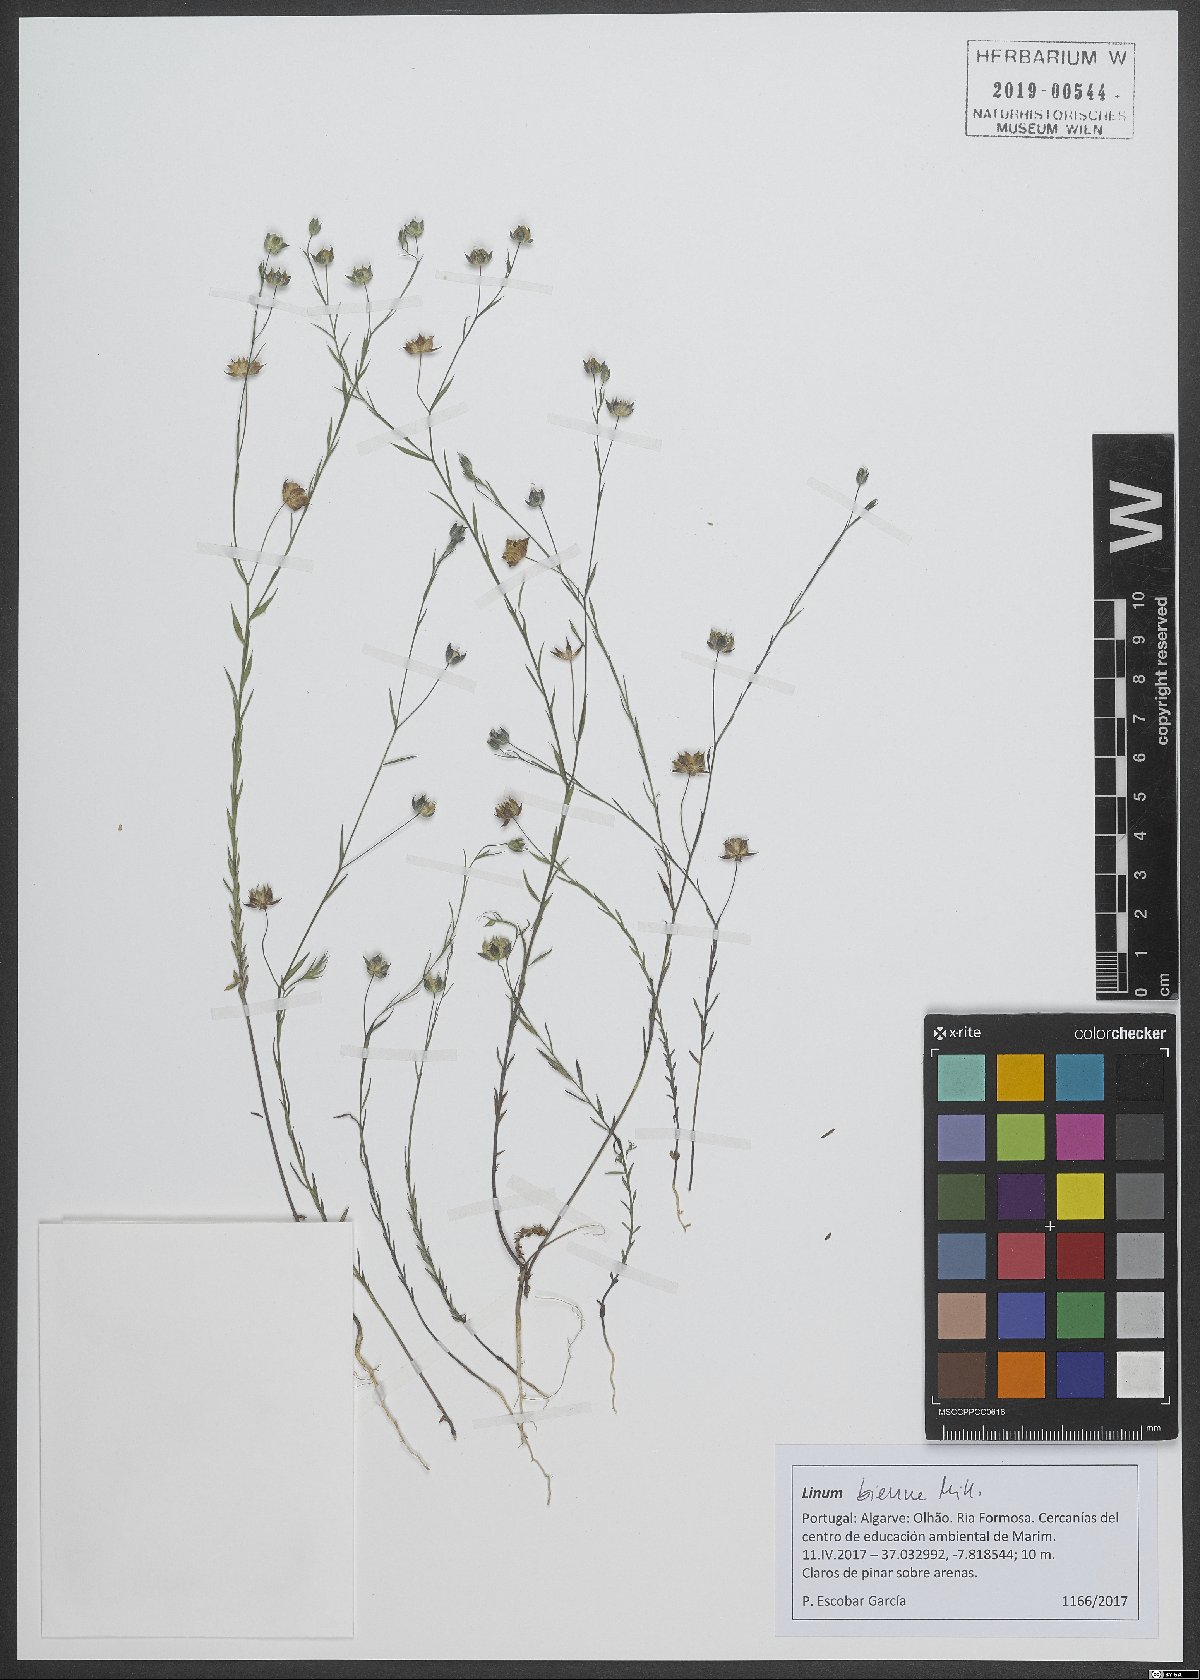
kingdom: Plantae
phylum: Tracheophyta
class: Magnoliopsida
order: Malpighiales
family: Linaceae
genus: Linum
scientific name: Linum bienne
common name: Pale flax
